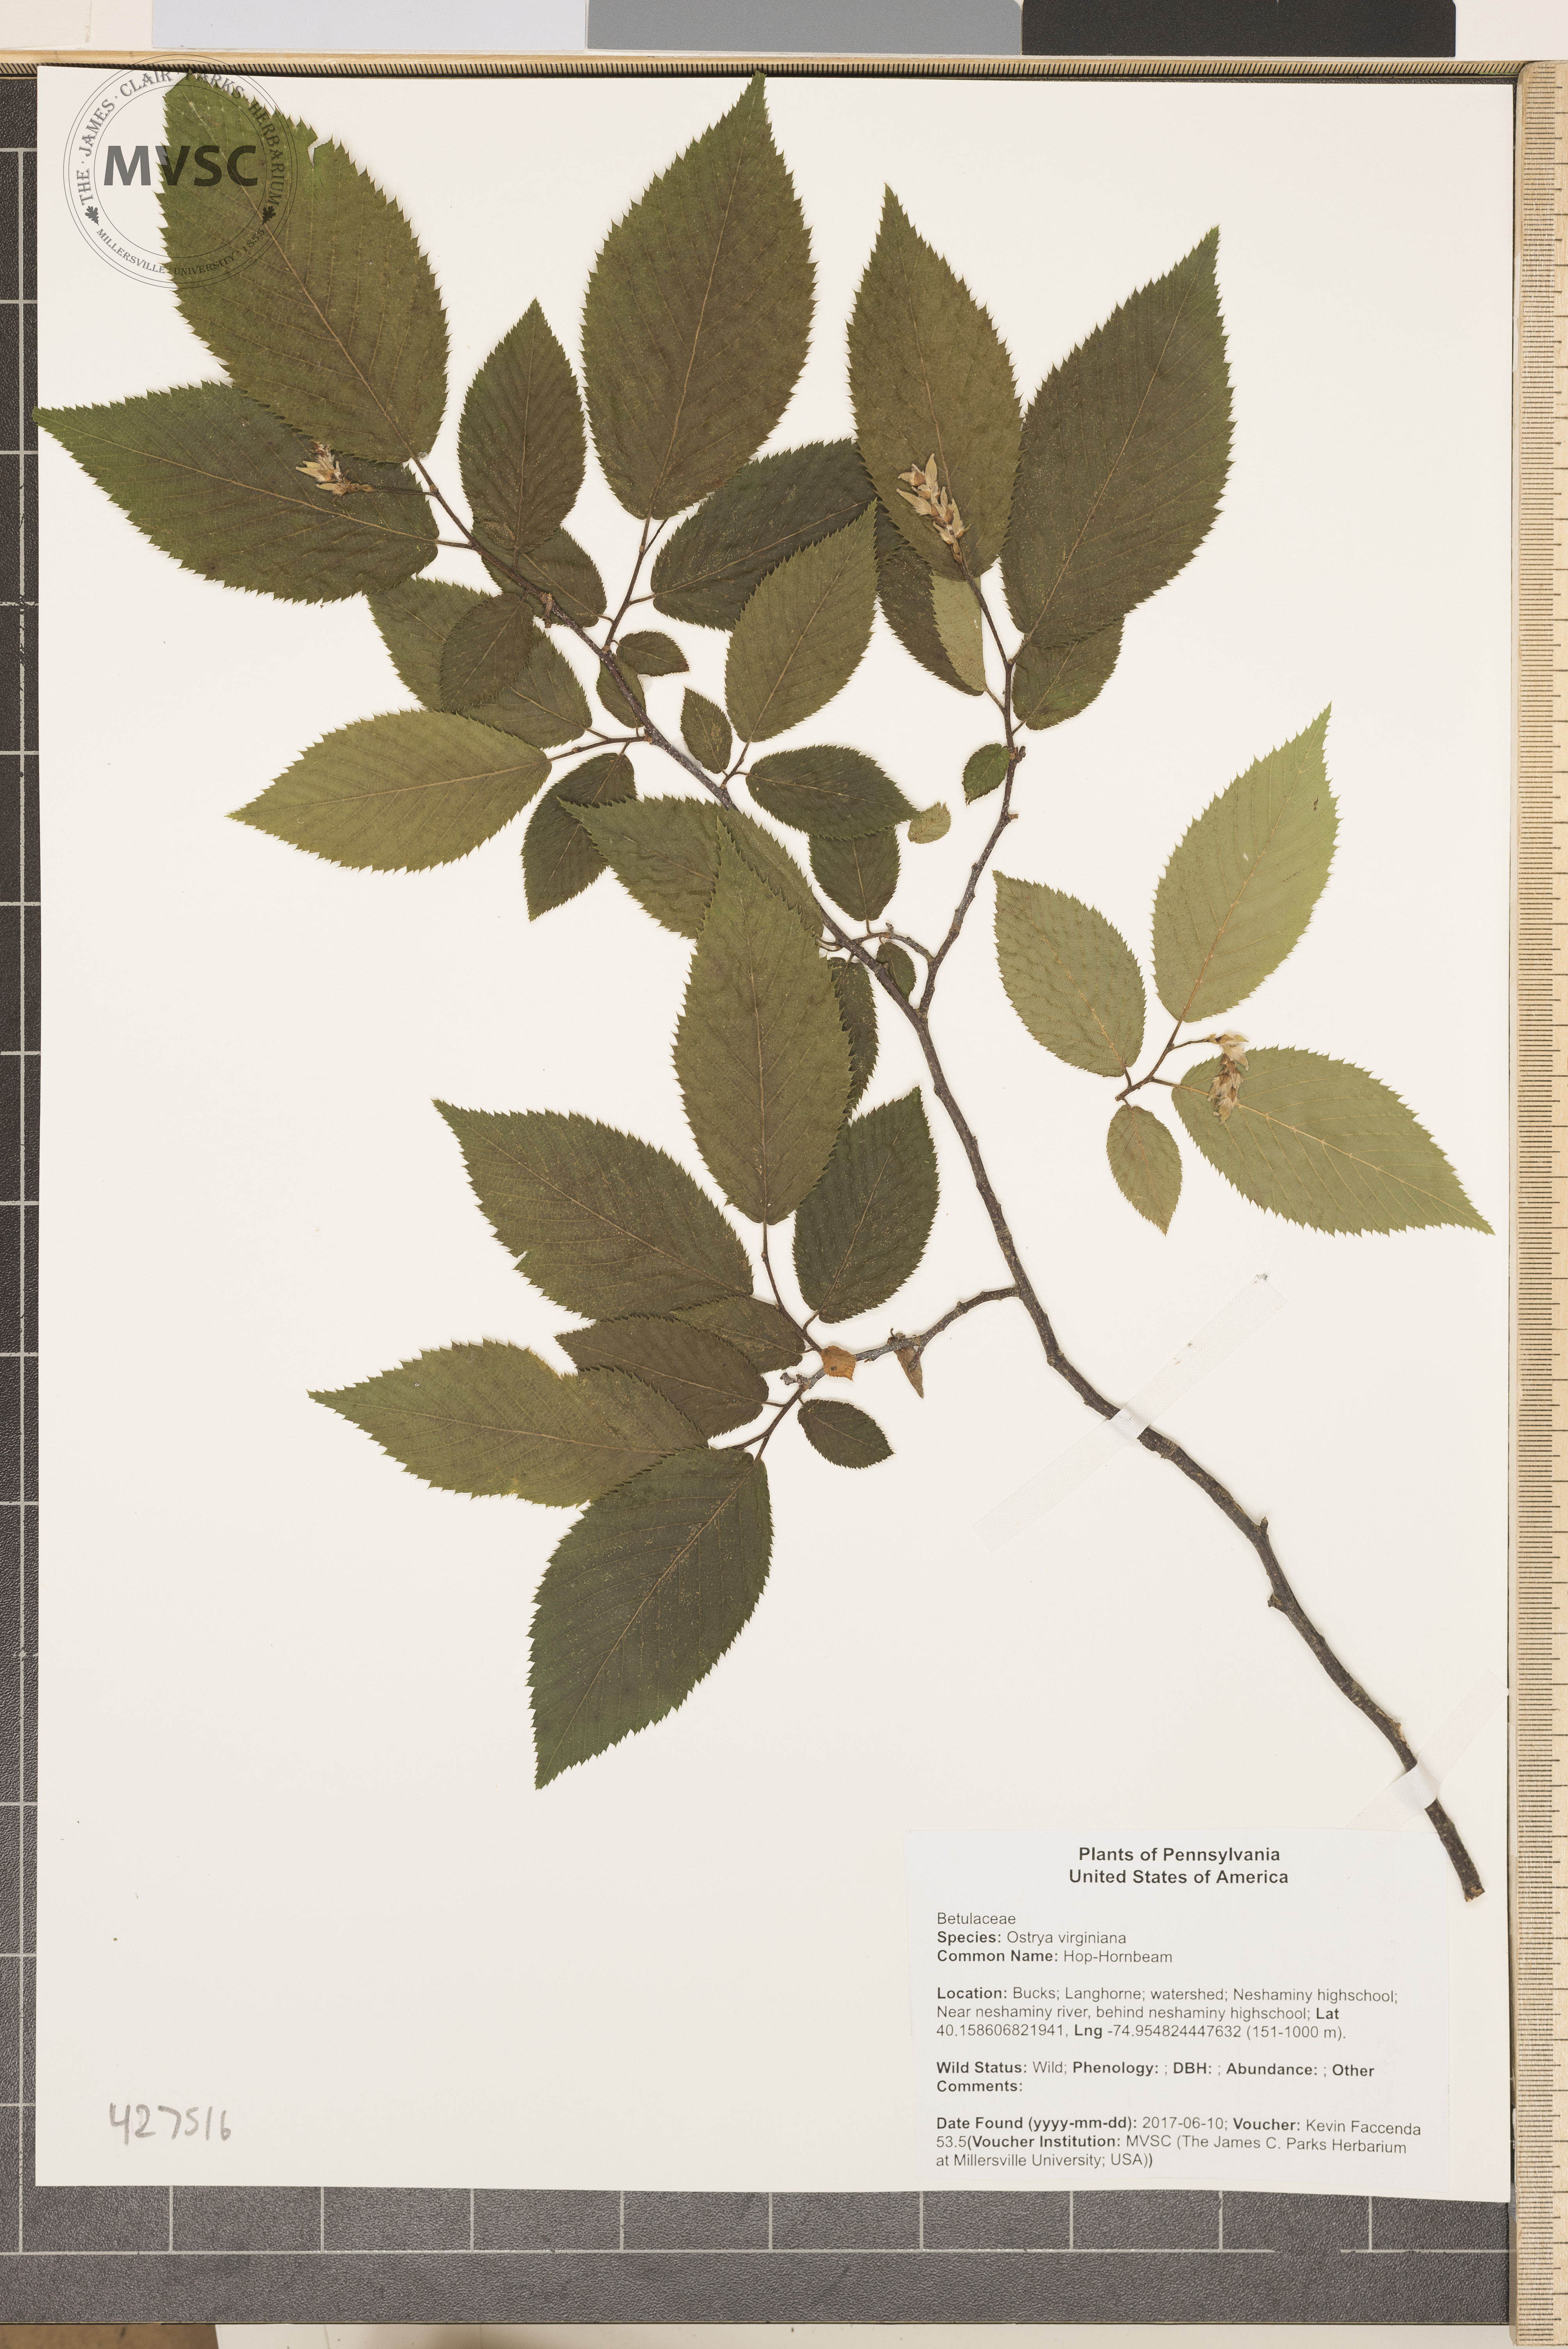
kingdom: Plantae
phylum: Tracheophyta
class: Magnoliopsida
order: Fagales
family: Betulaceae
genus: Ostrya
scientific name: Ostrya virginiana
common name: Hop-Hornbeam
